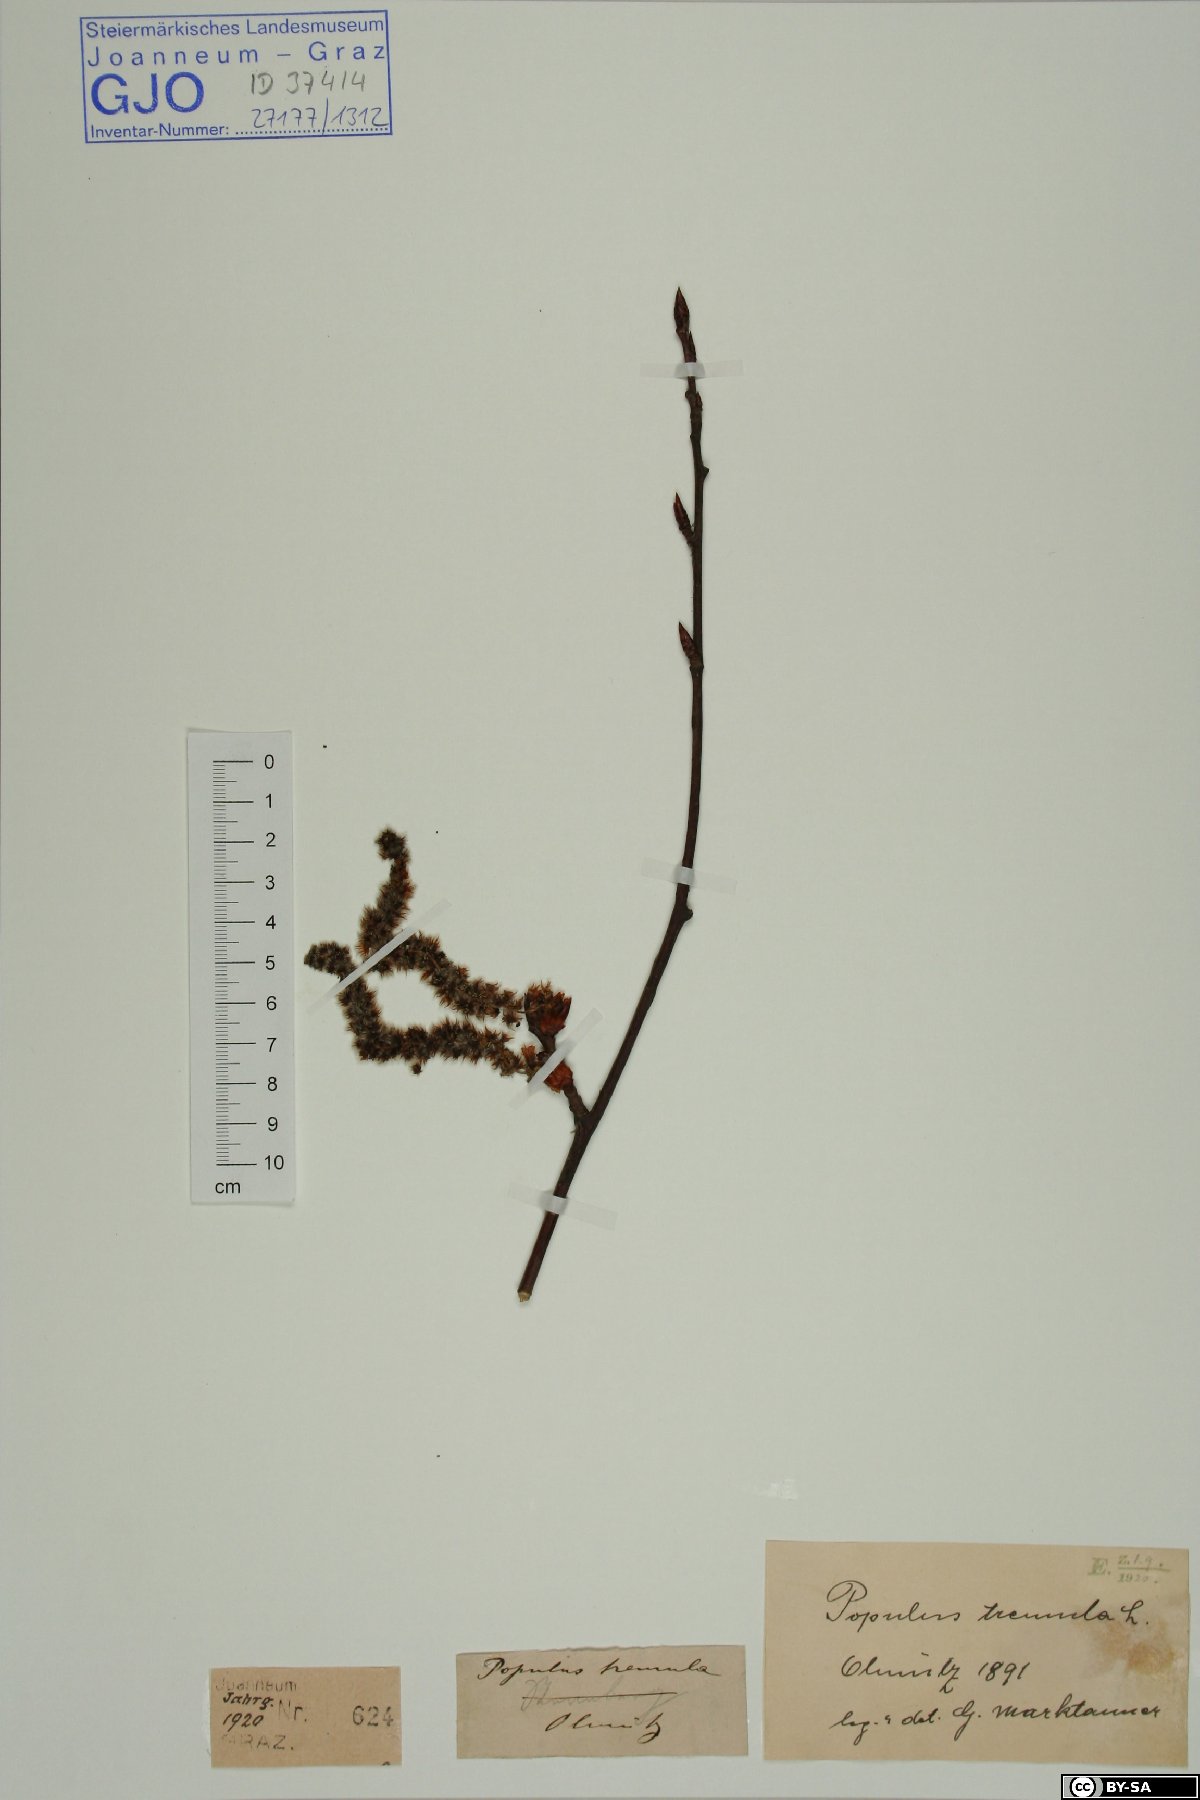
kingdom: Plantae
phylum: Tracheophyta
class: Magnoliopsida
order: Malpighiales
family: Salicaceae
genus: Populus
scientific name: Populus tremula
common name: European aspen
